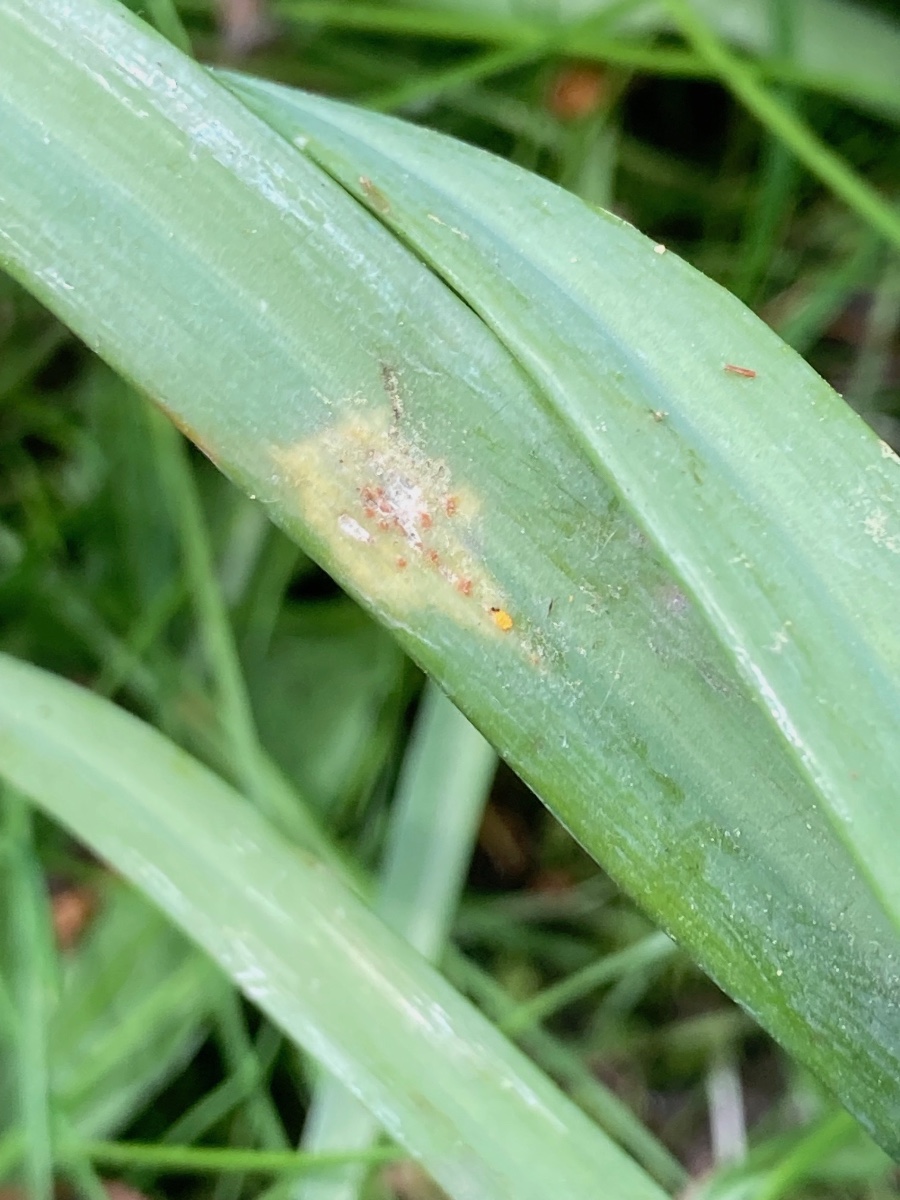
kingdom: Fungi
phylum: Basidiomycota
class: Pucciniomycetes
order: Pucciniales
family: Melampsoraceae
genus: Melampsora
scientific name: Melampsora galanthi-fragilis
